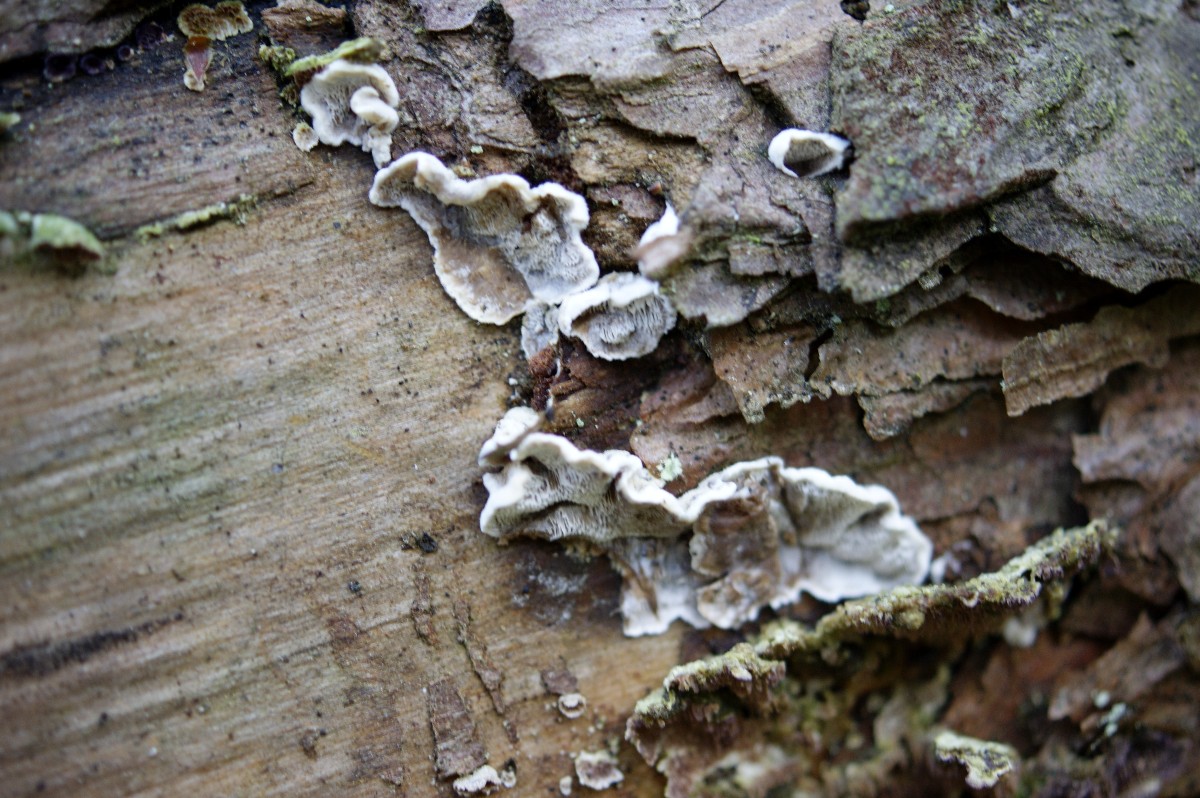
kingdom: Fungi
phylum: Basidiomycota
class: Agaricomycetes
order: Polyporales
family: Incrustoporiaceae
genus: Skeletocutis
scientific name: Skeletocutis carneogrisea
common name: rødgrå krystalporesvamp
